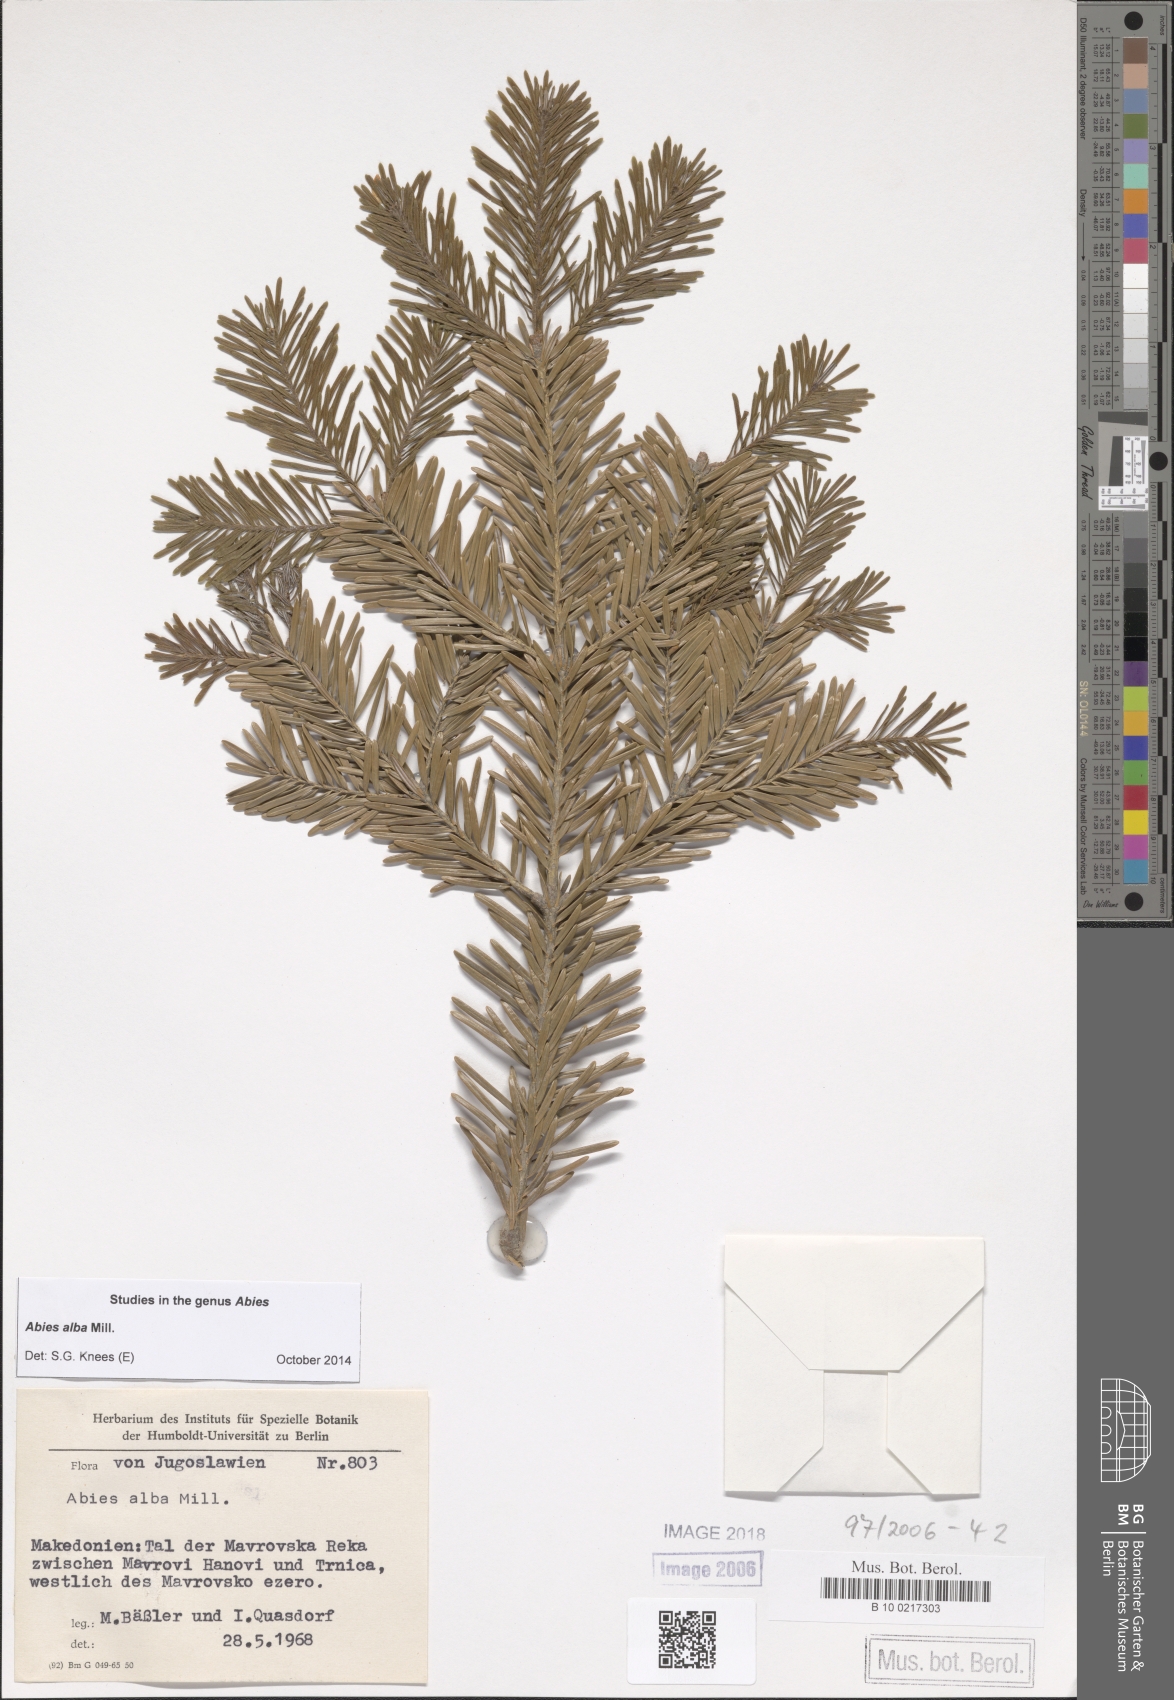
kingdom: Plantae
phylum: Tracheophyta
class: Pinopsida
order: Pinales
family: Pinaceae
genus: Abies
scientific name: Abies alba
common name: Silver fir
